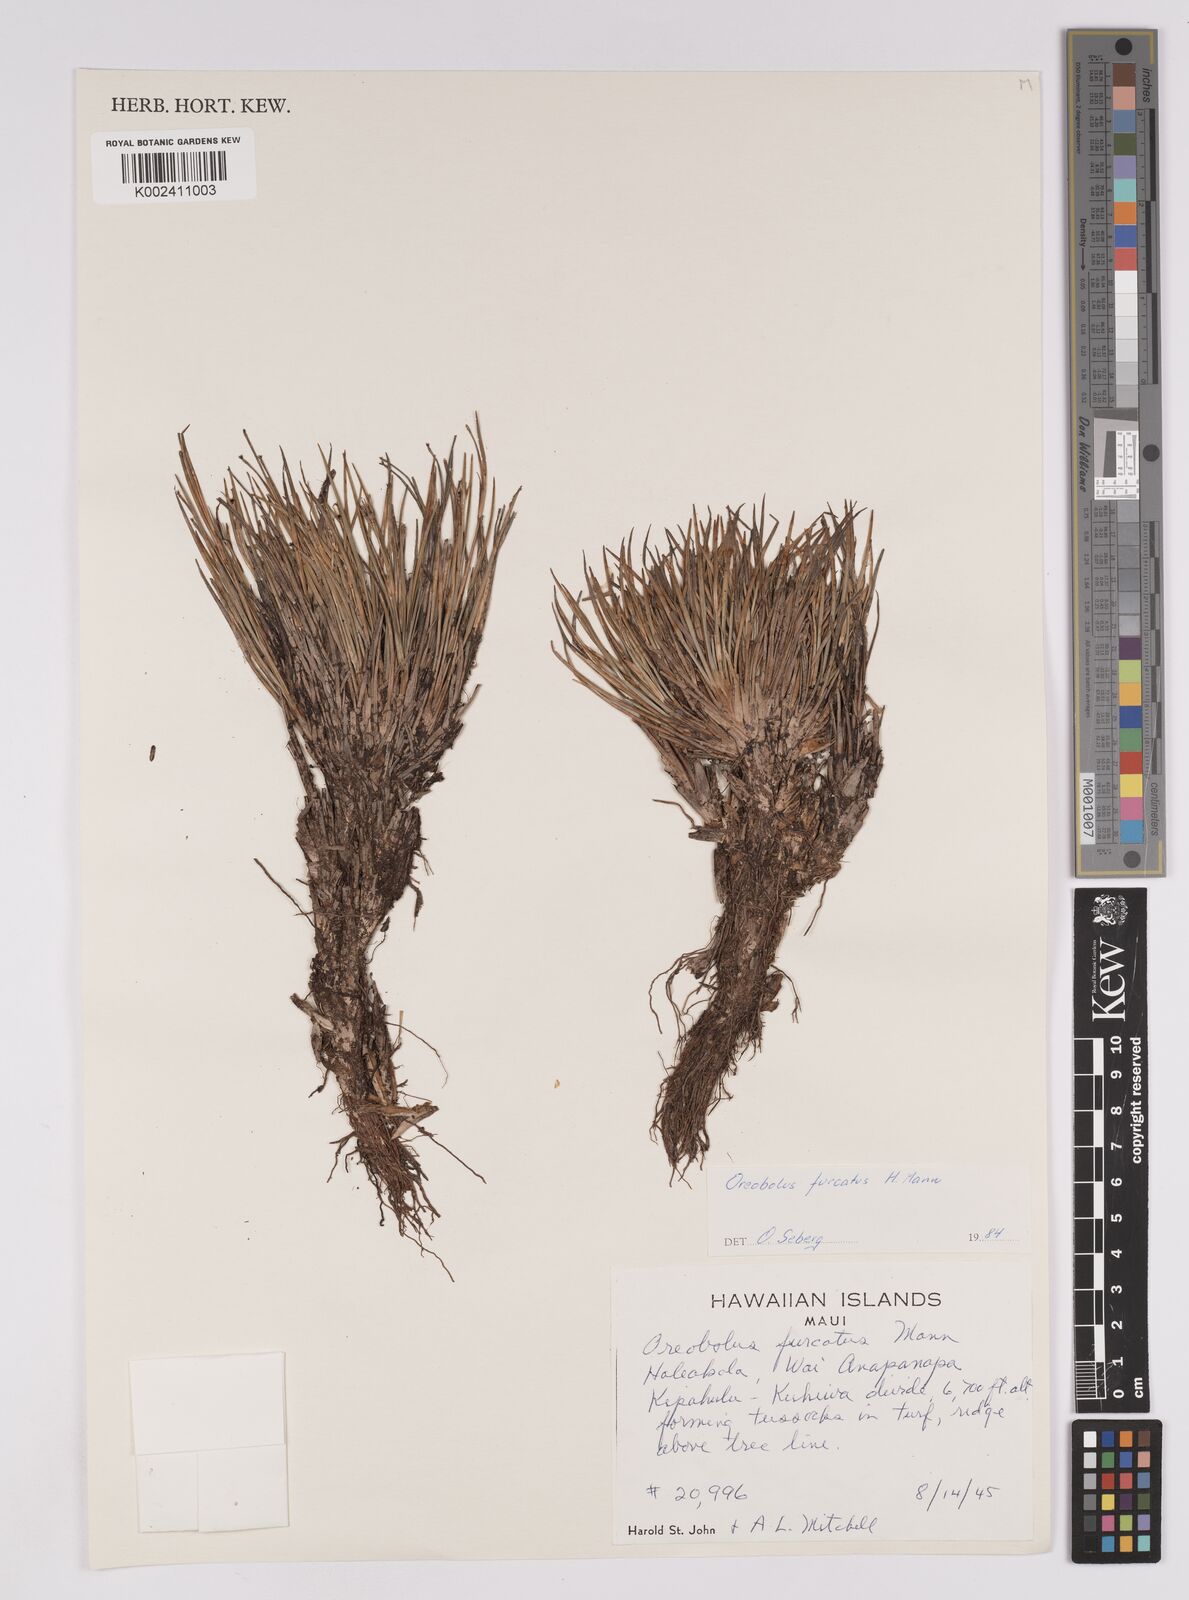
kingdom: Plantae
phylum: Tracheophyta
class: Liliopsida
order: Poales
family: Cyperaceae
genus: Oreobolus
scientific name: Oreobolus
